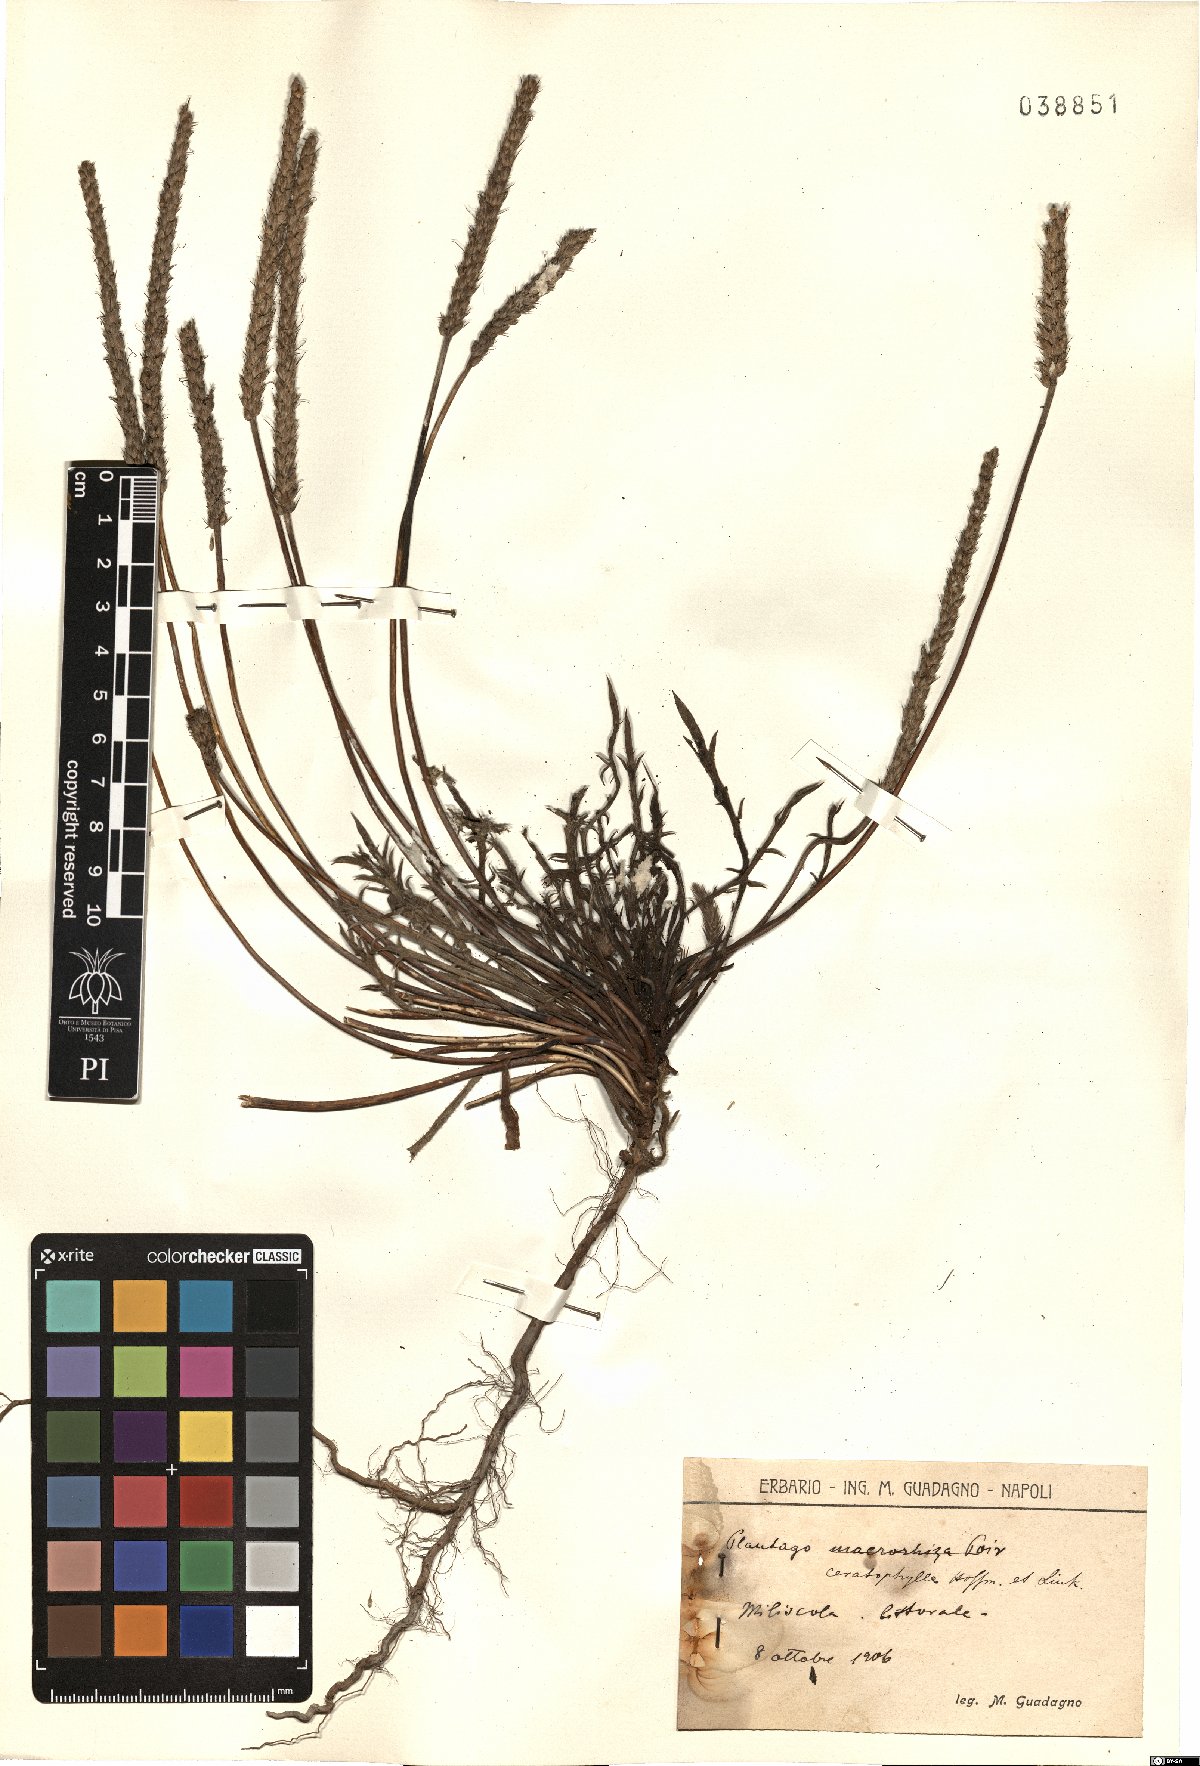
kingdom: Plantae
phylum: Tracheophyta
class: Magnoliopsida
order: Lamiales
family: Plantaginaceae
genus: Plantago
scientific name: Plantago coronopus
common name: Buck's-horn plantain
